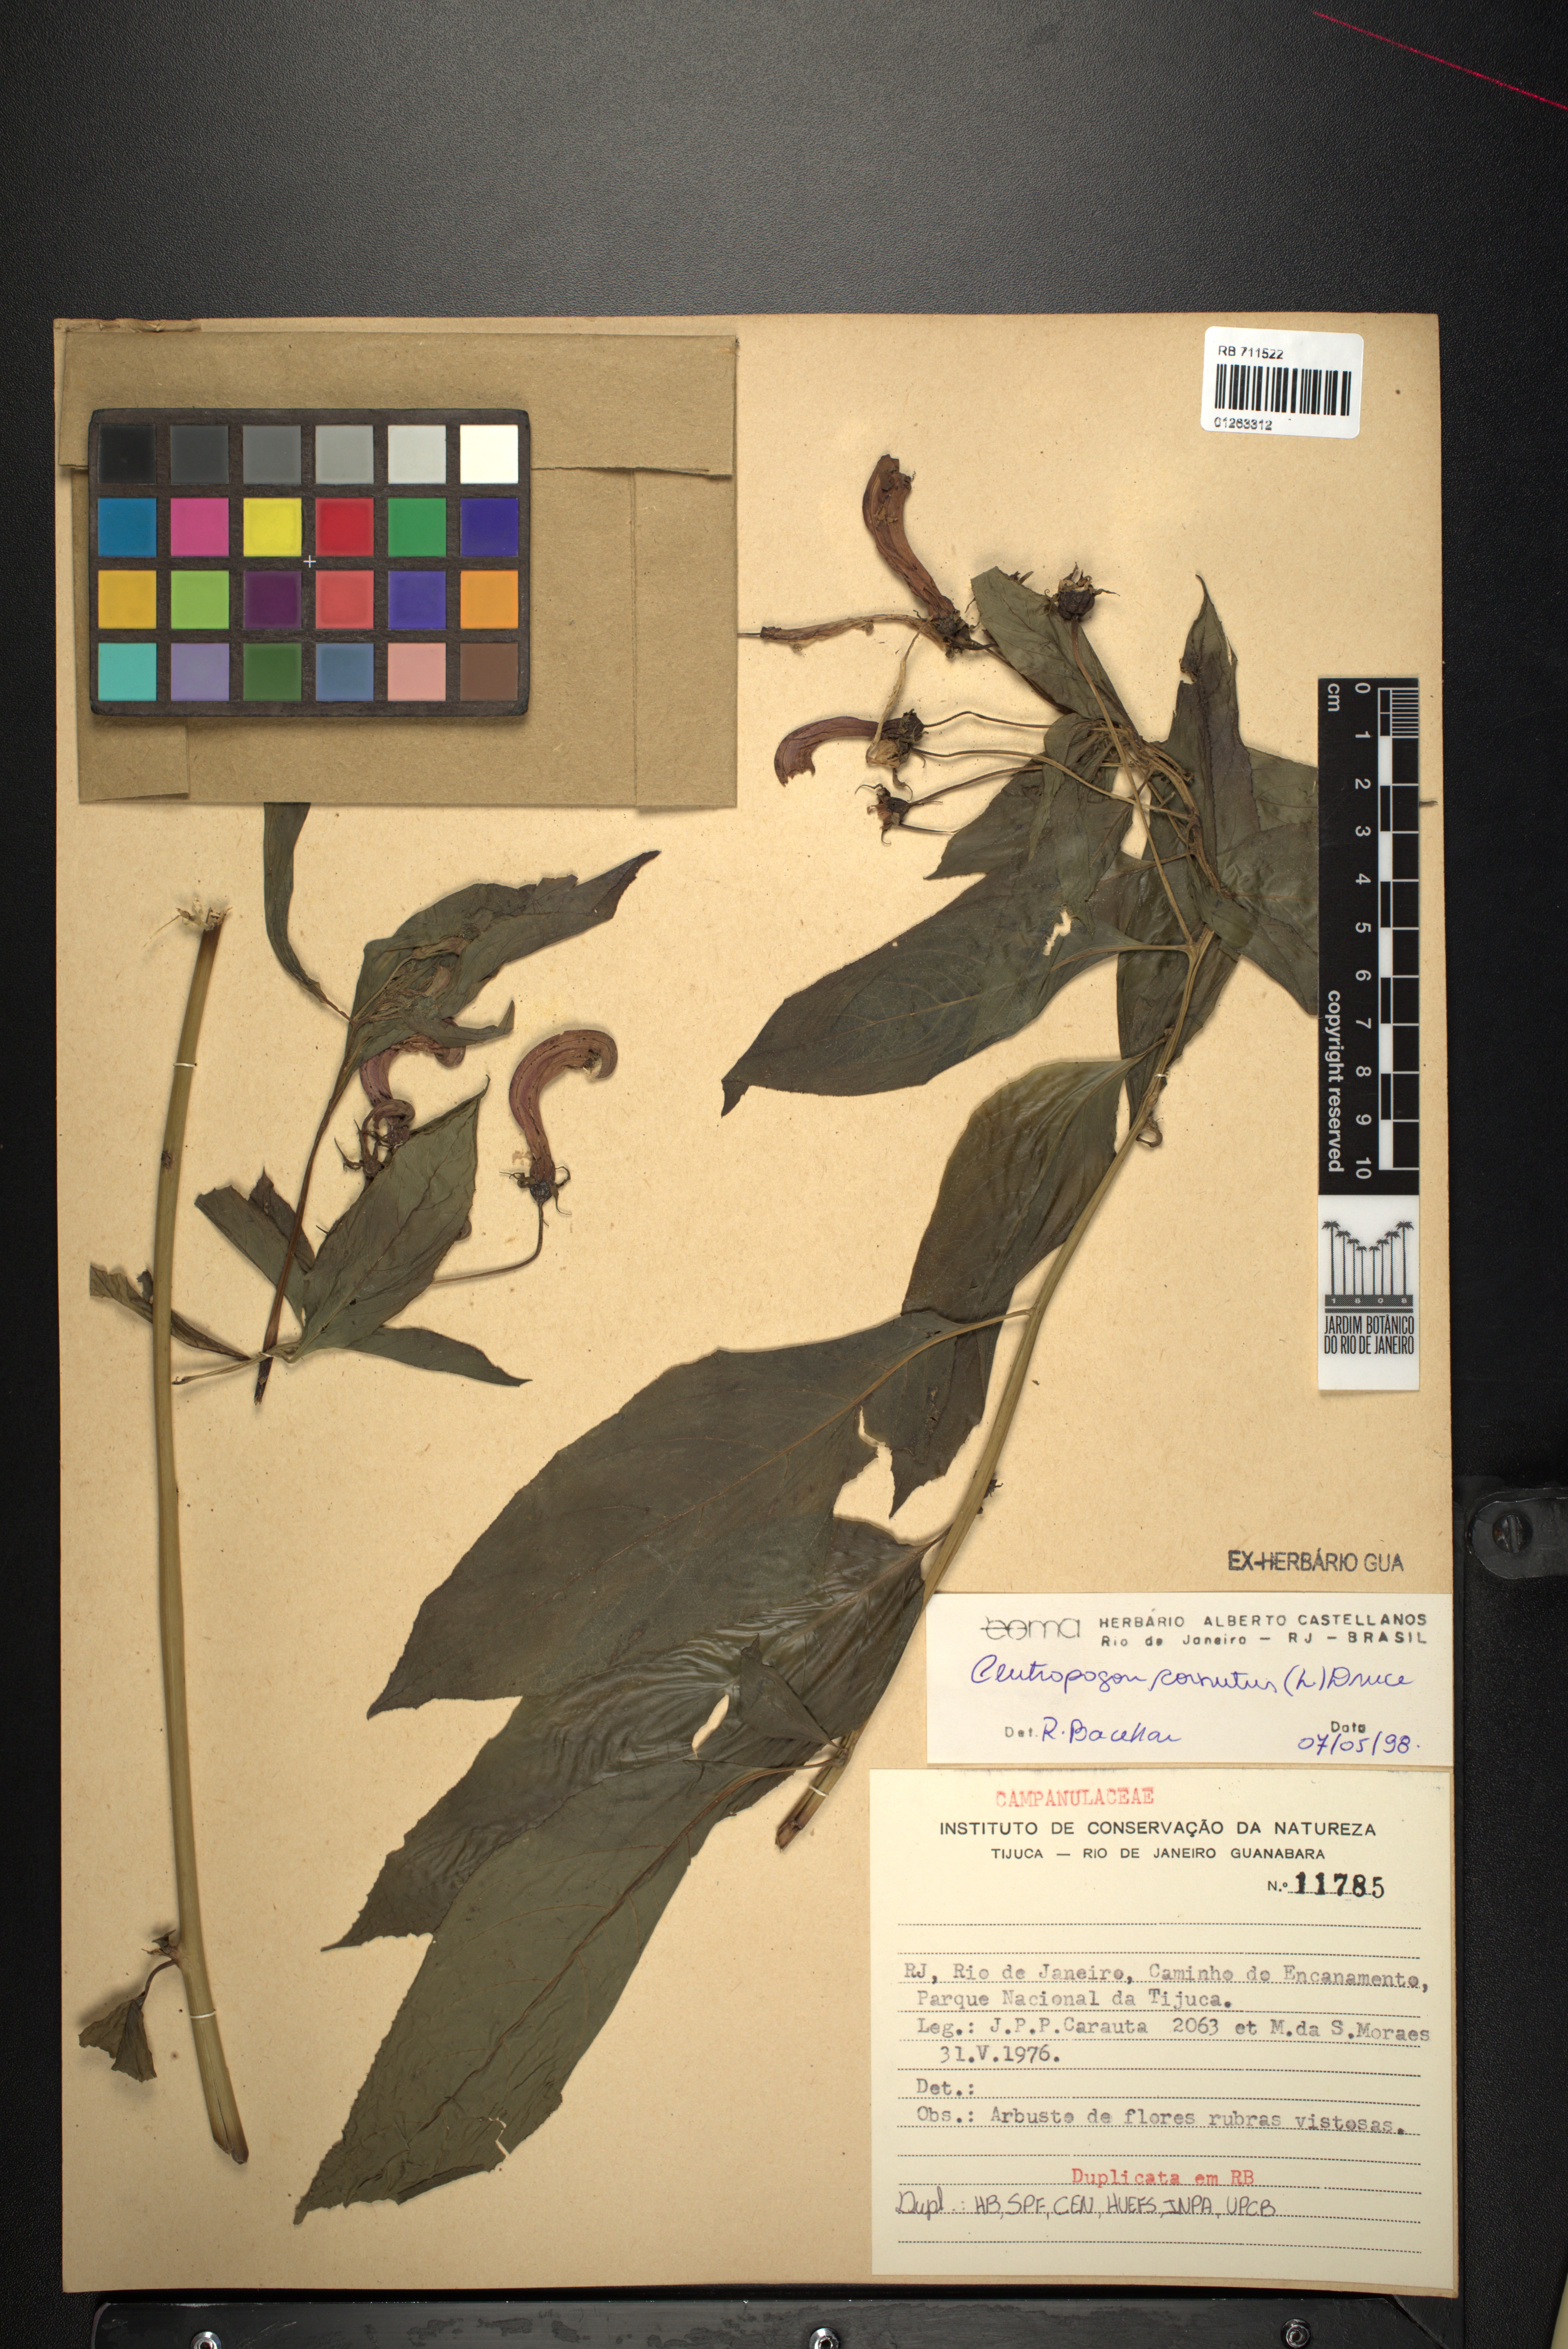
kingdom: Plantae
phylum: Tracheophyta
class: Magnoliopsida
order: Asterales
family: Campanulaceae
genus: Centropogon
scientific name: Centropogon cornutus
